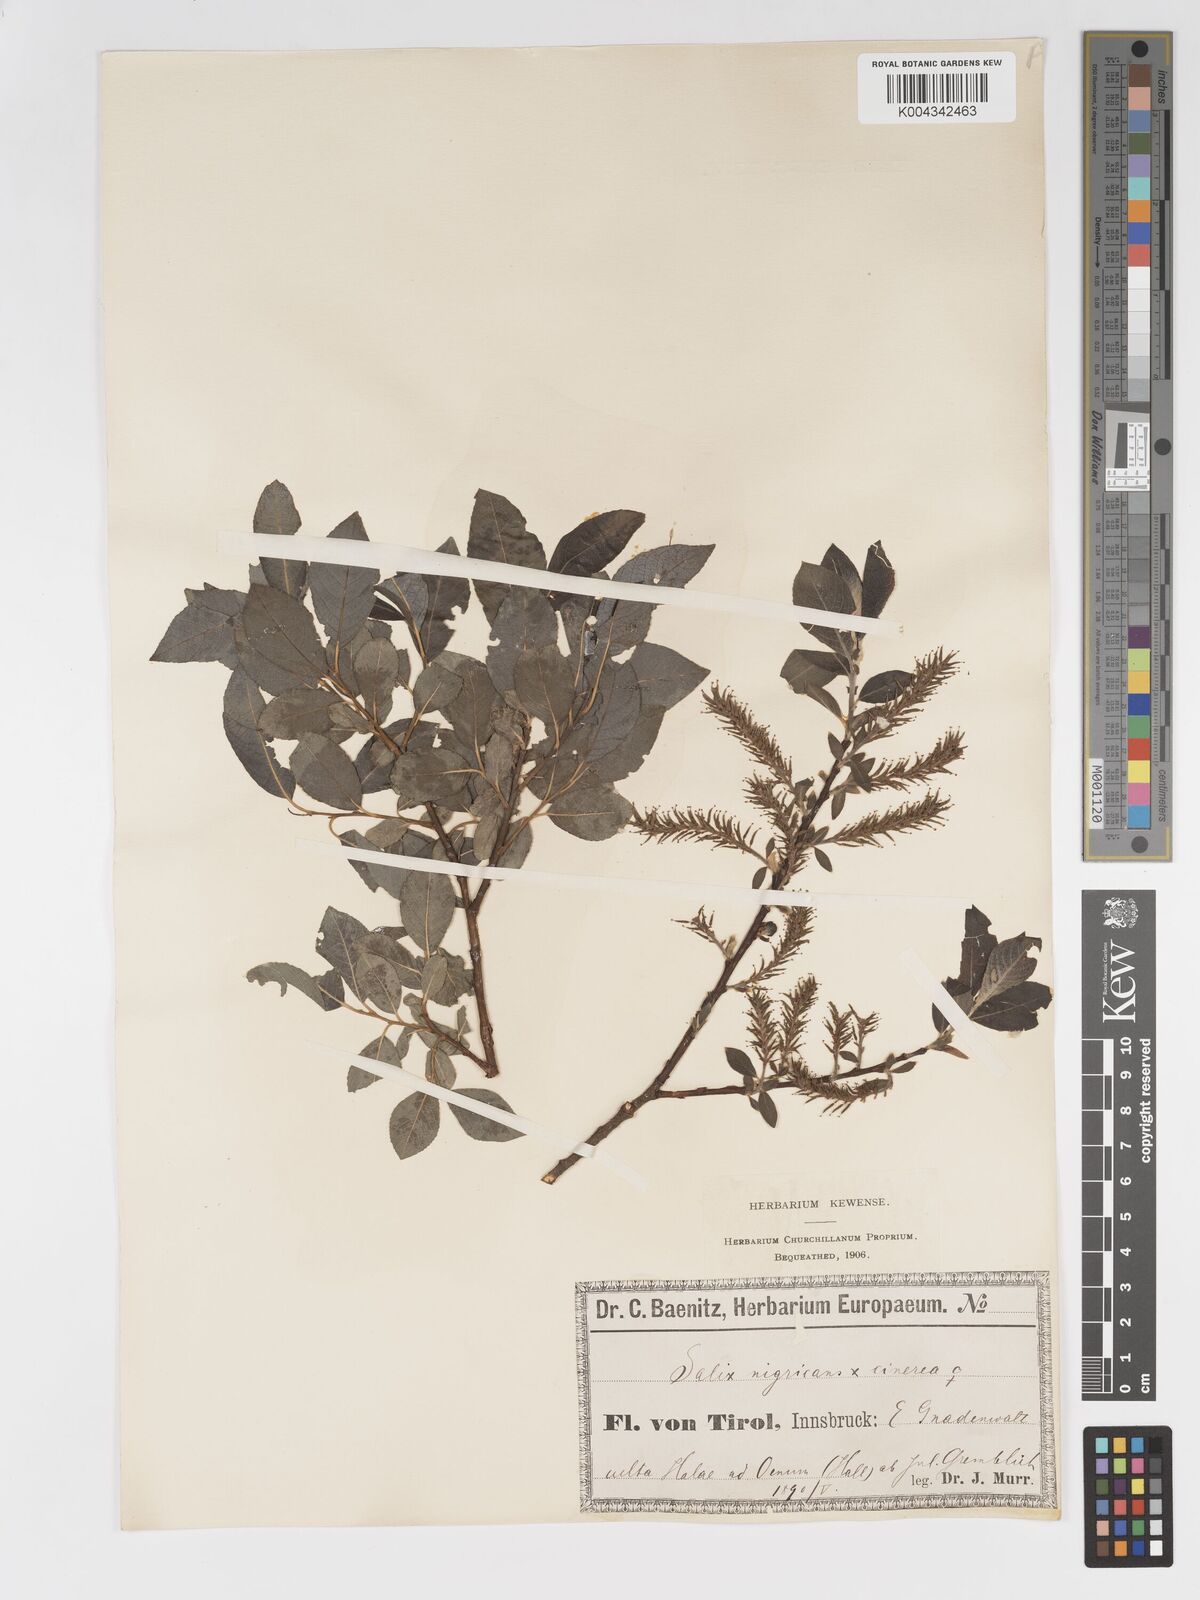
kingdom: Plantae
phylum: Tracheophyta
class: Magnoliopsida
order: Malpighiales
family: Salicaceae
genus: Salix
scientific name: Salix
